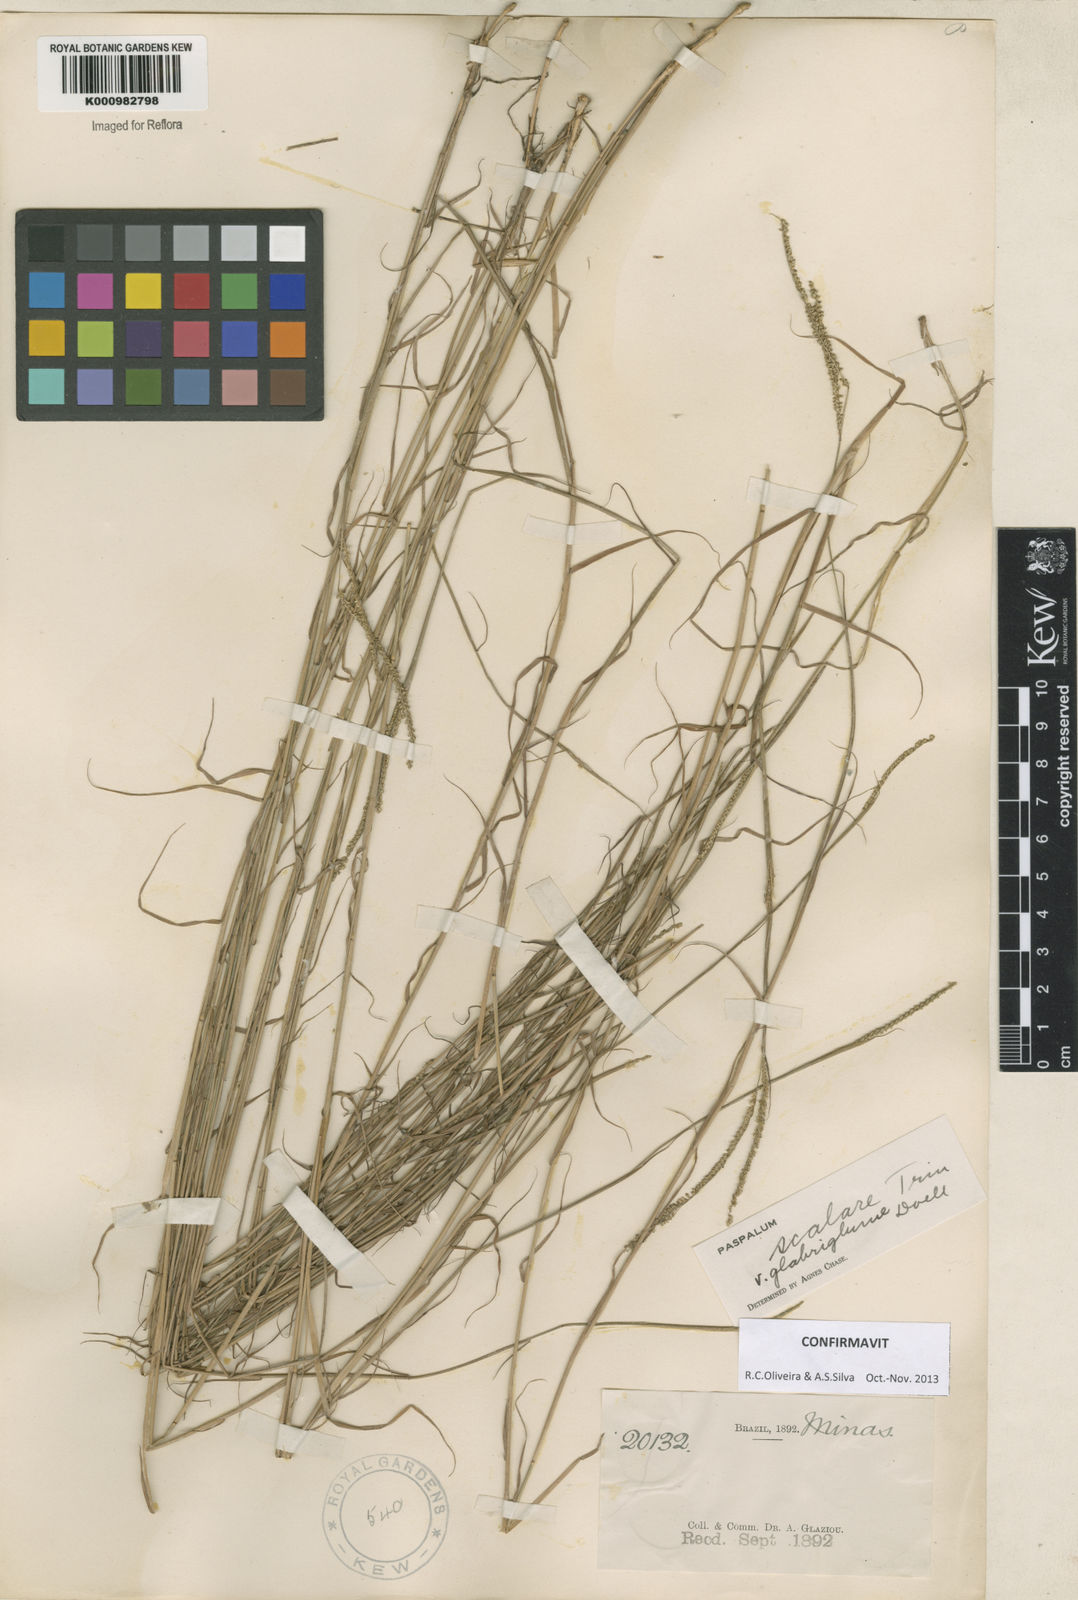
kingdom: Plantae
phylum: Tracheophyta
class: Liliopsida
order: Poales
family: Poaceae
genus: Paspalum
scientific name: Paspalum scalare
